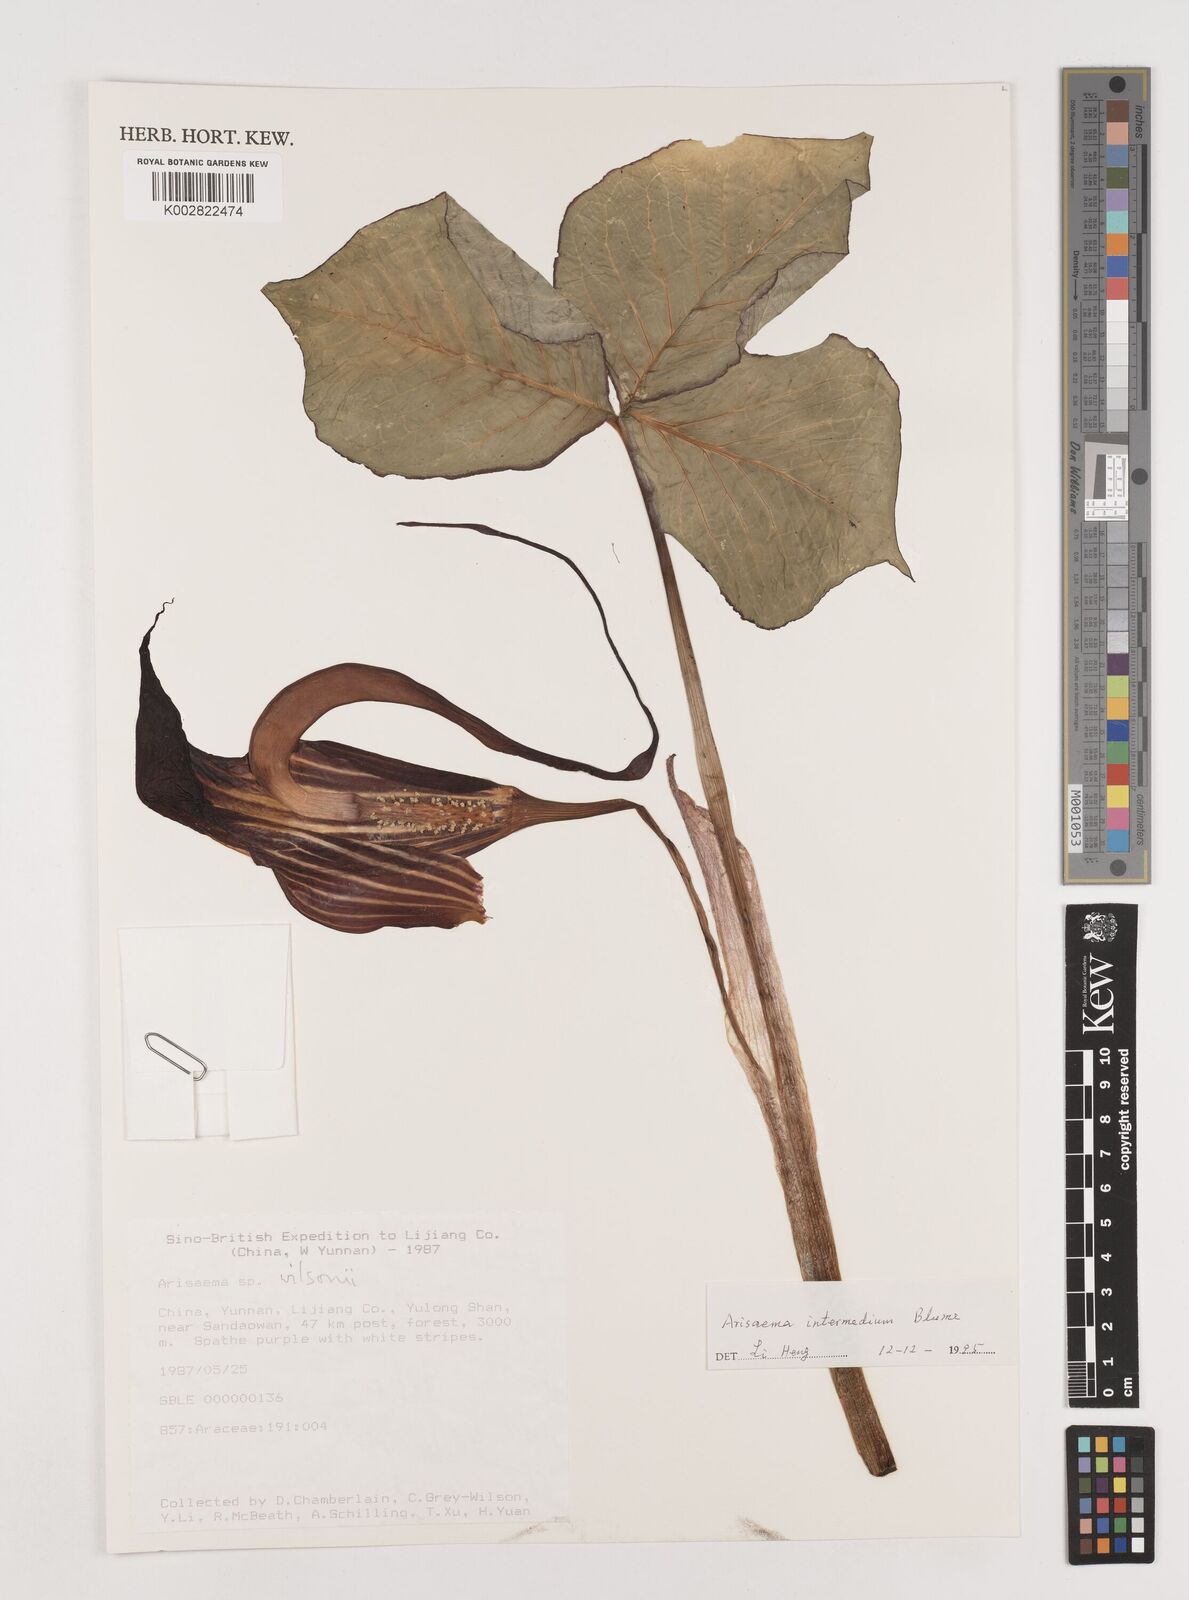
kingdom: Plantae
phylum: Tracheophyta
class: Liliopsida
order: Alismatales
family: Araceae
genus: Arisaema
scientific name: Arisaema intermedium
